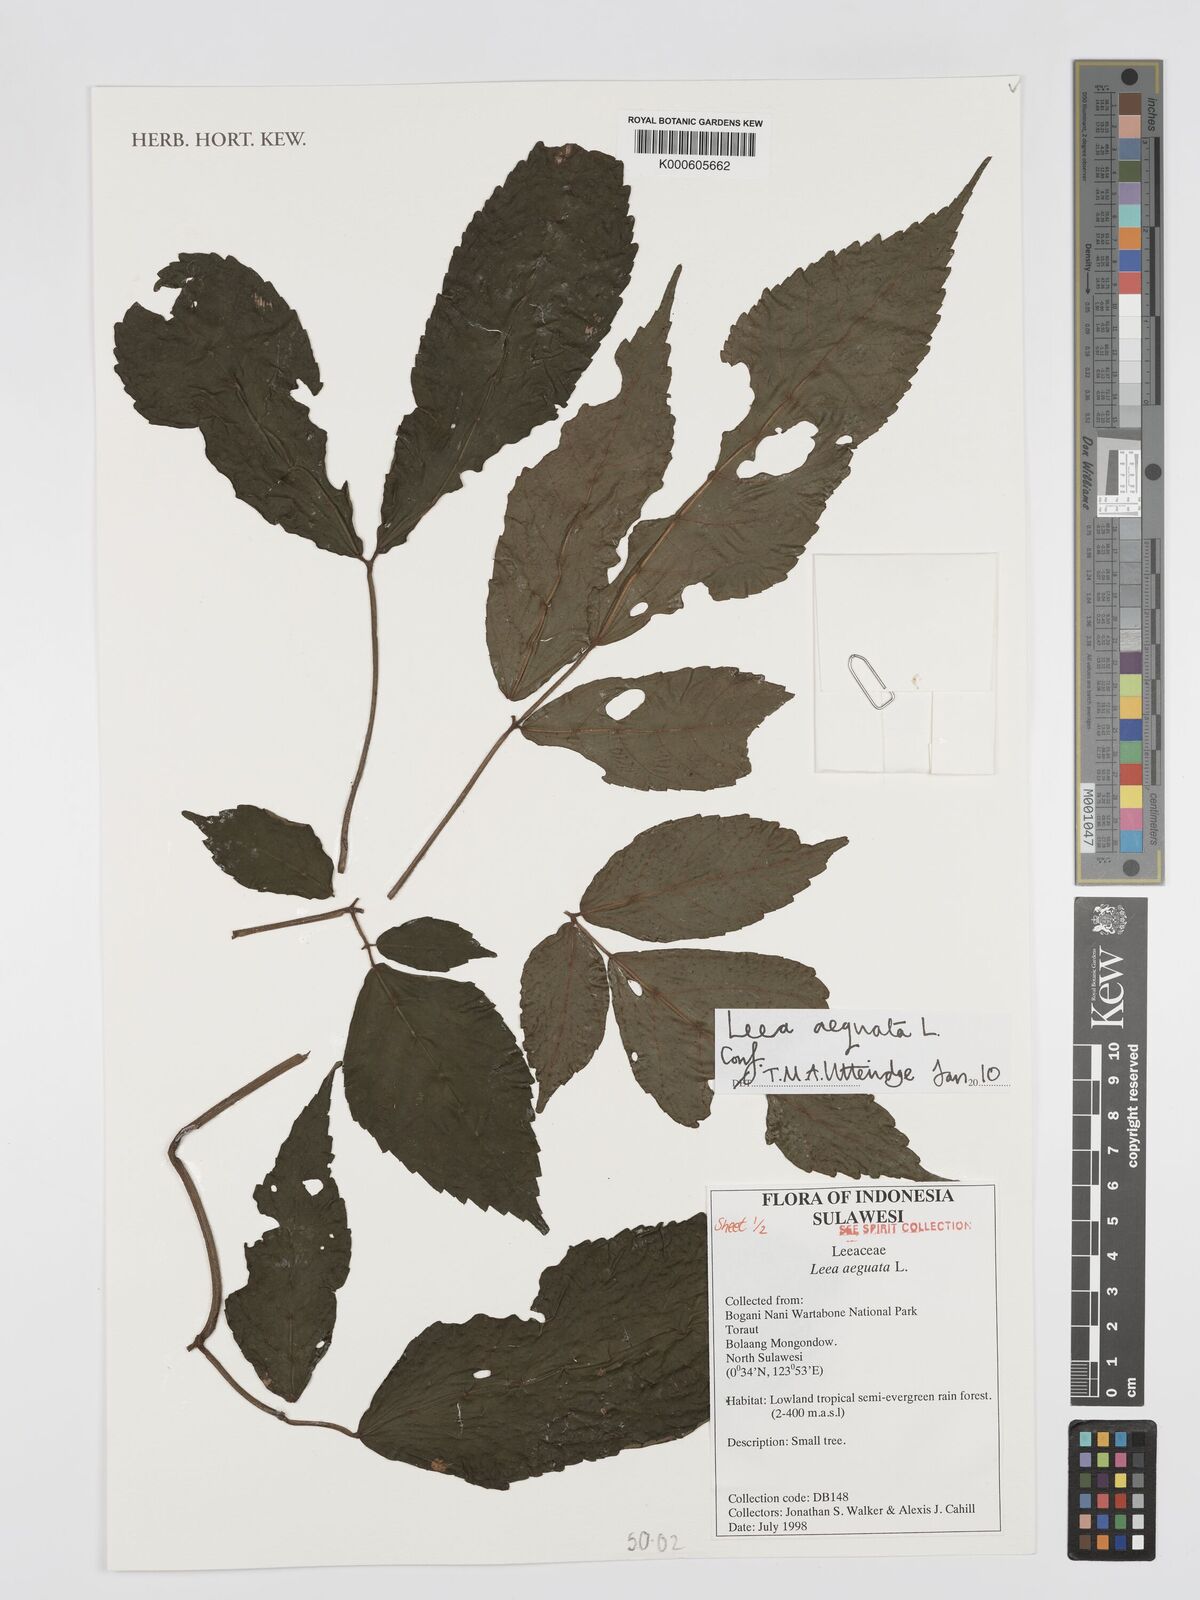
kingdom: Plantae
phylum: Tracheophyta
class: Magnoliopsida
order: Vitales
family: Vitaceae
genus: Leea
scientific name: Leea aequata
